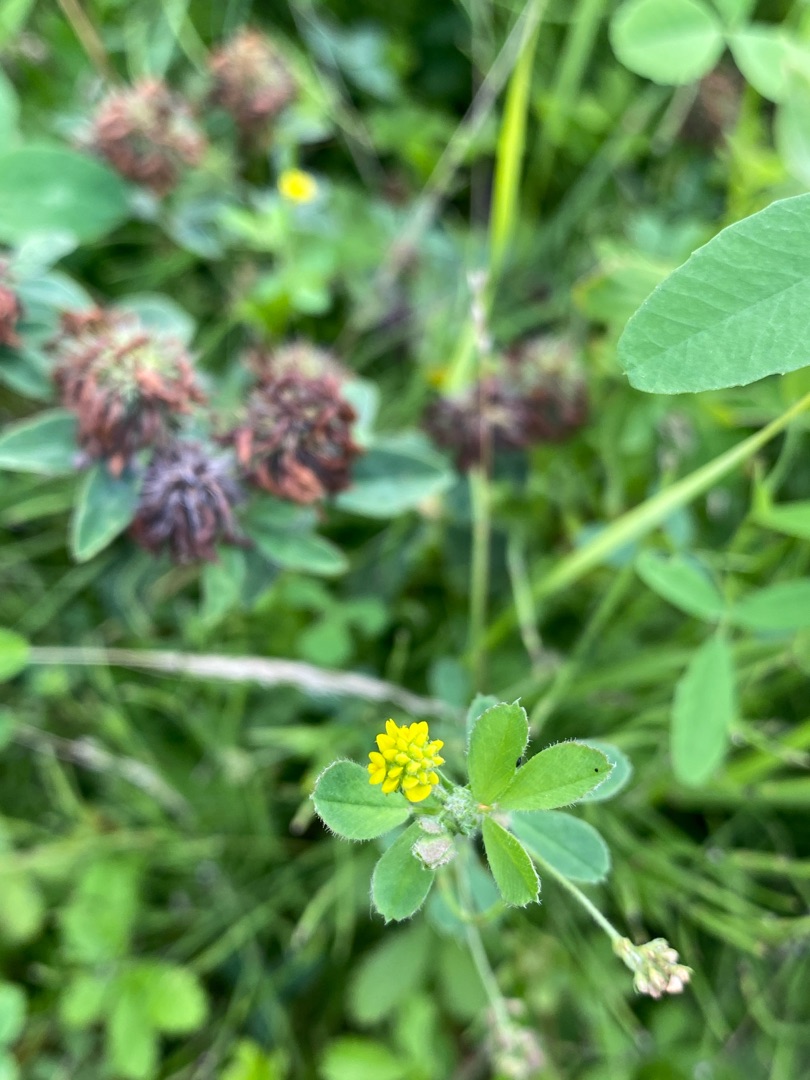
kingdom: Plantae
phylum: Tracheophyta
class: Magnoliopsida
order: Fabales
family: Fabaceae
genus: Medicago
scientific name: Medicago lupulina
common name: Humle-sneglebælg
